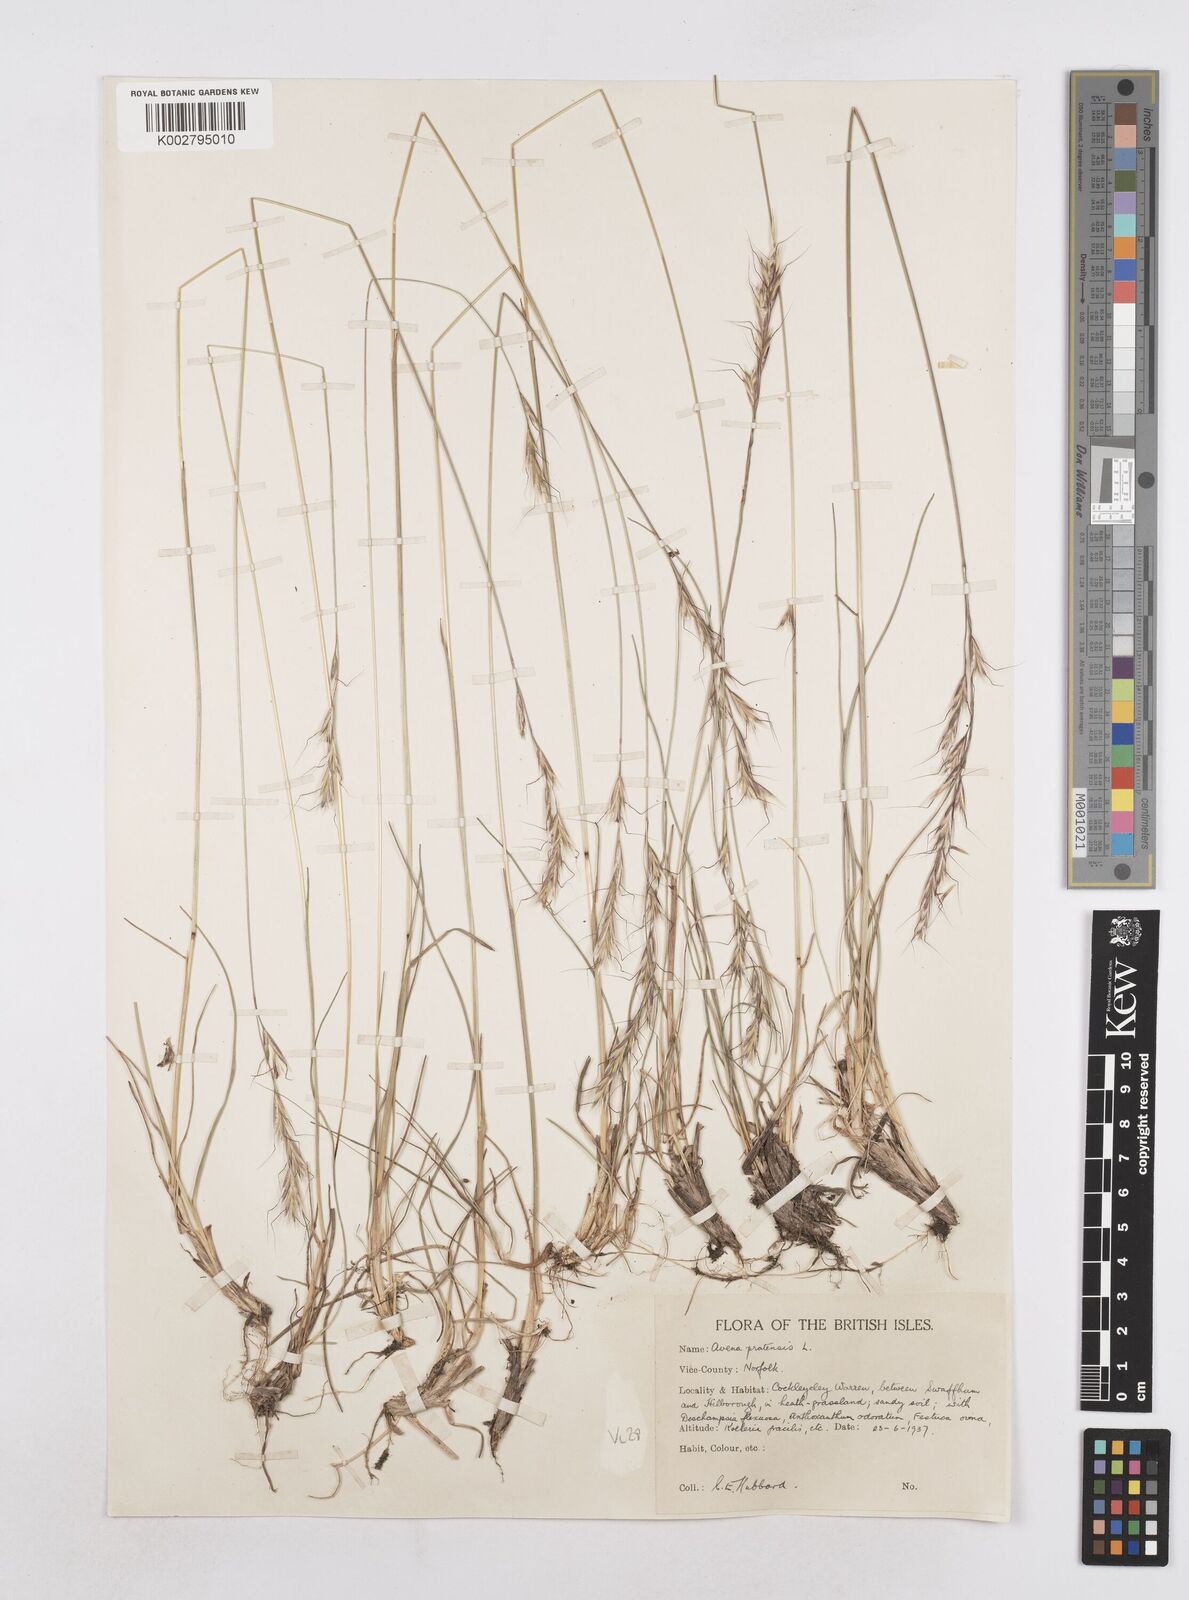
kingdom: Plantae
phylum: Tracheophyta
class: Liliopsida
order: Poales
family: Poaceae
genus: Helictochloa
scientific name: Helictochloa pratensis
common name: Meadow oat grass
